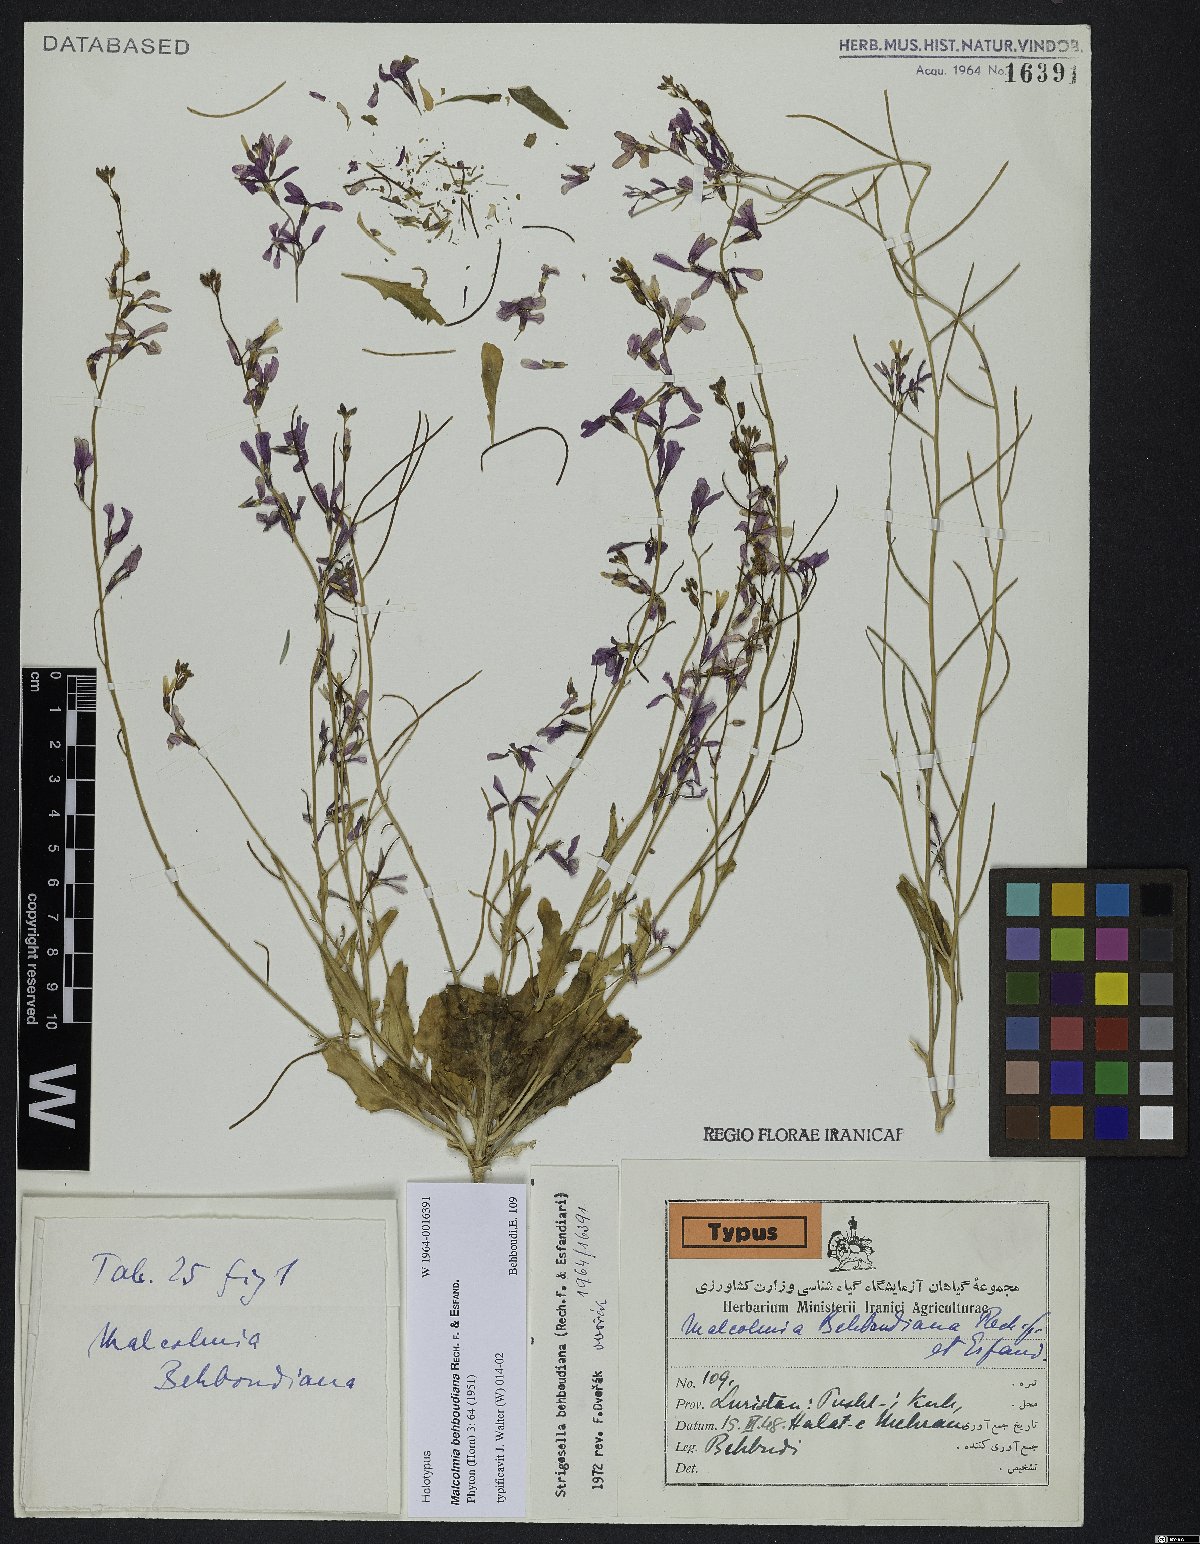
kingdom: Plantae
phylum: Tracheophyta
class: Magnoliopsida
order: Brassicales
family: Brassicaceae
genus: Strigosella
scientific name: Strigosella behboudiana
